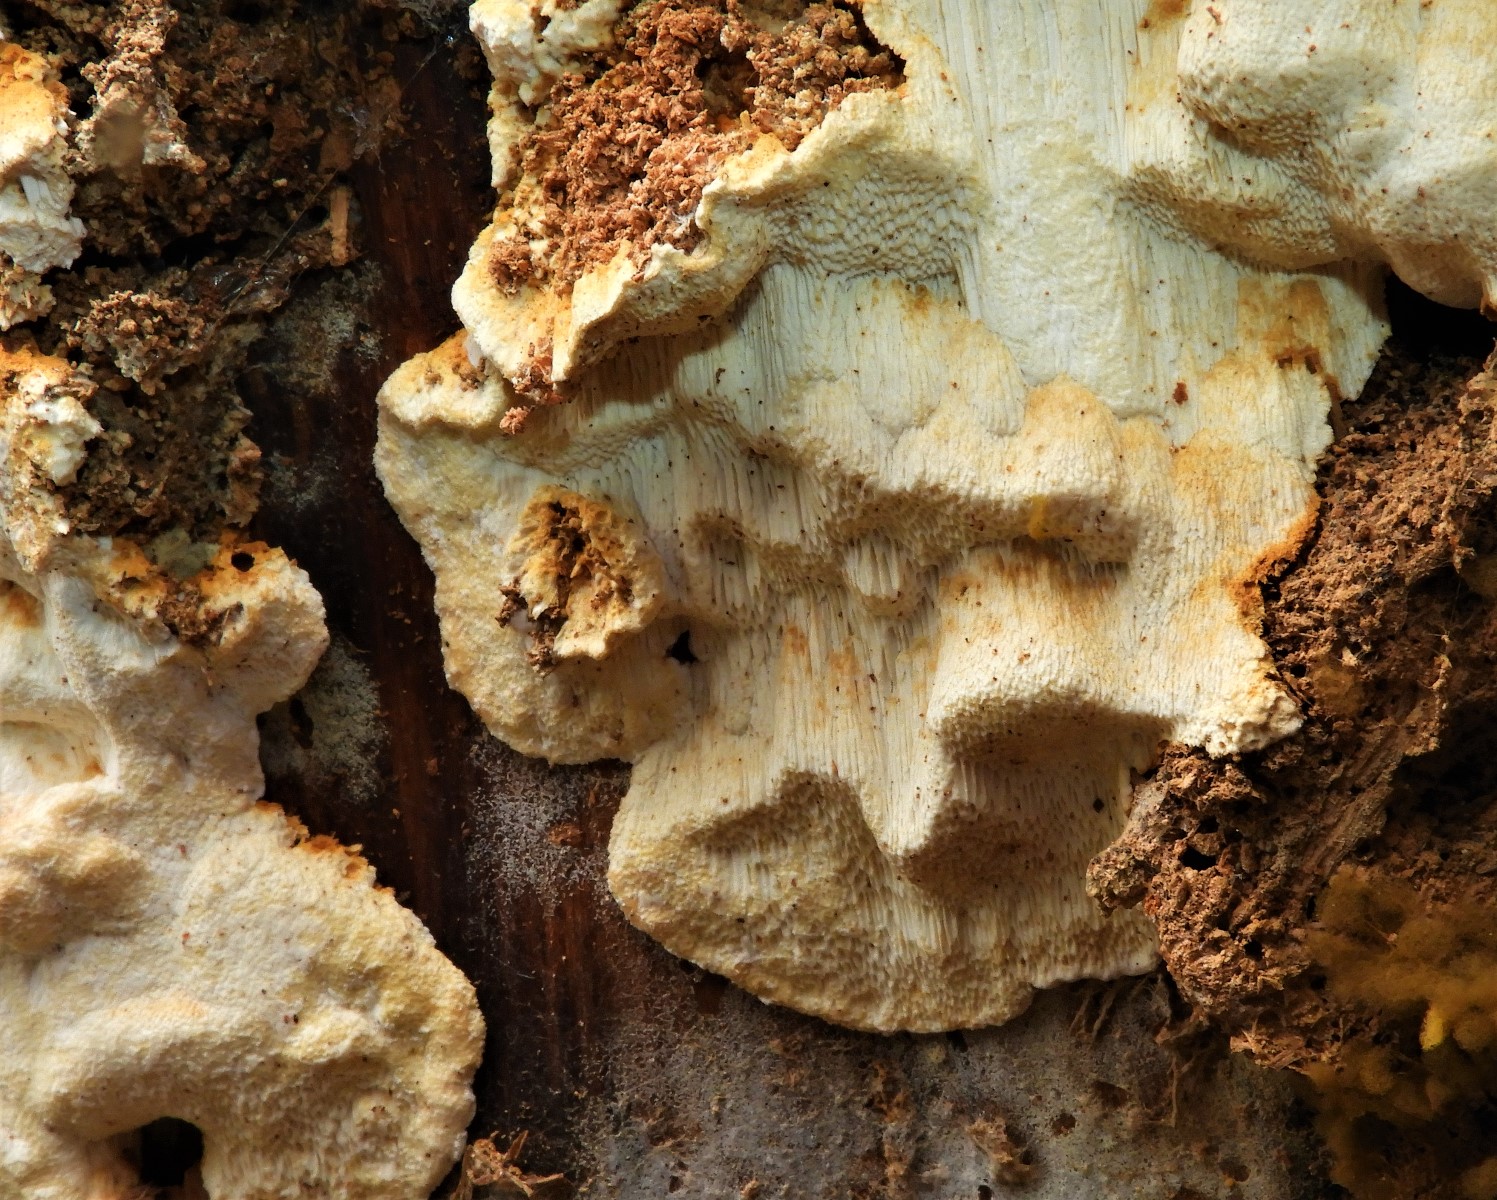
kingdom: Fungi
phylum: Basidiomycota
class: Agaricomycetes
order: Russulales
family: Bondarzewiaceae
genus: Heterobasidion
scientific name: Heterobasidion annosum
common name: almindelig rodfordærver
